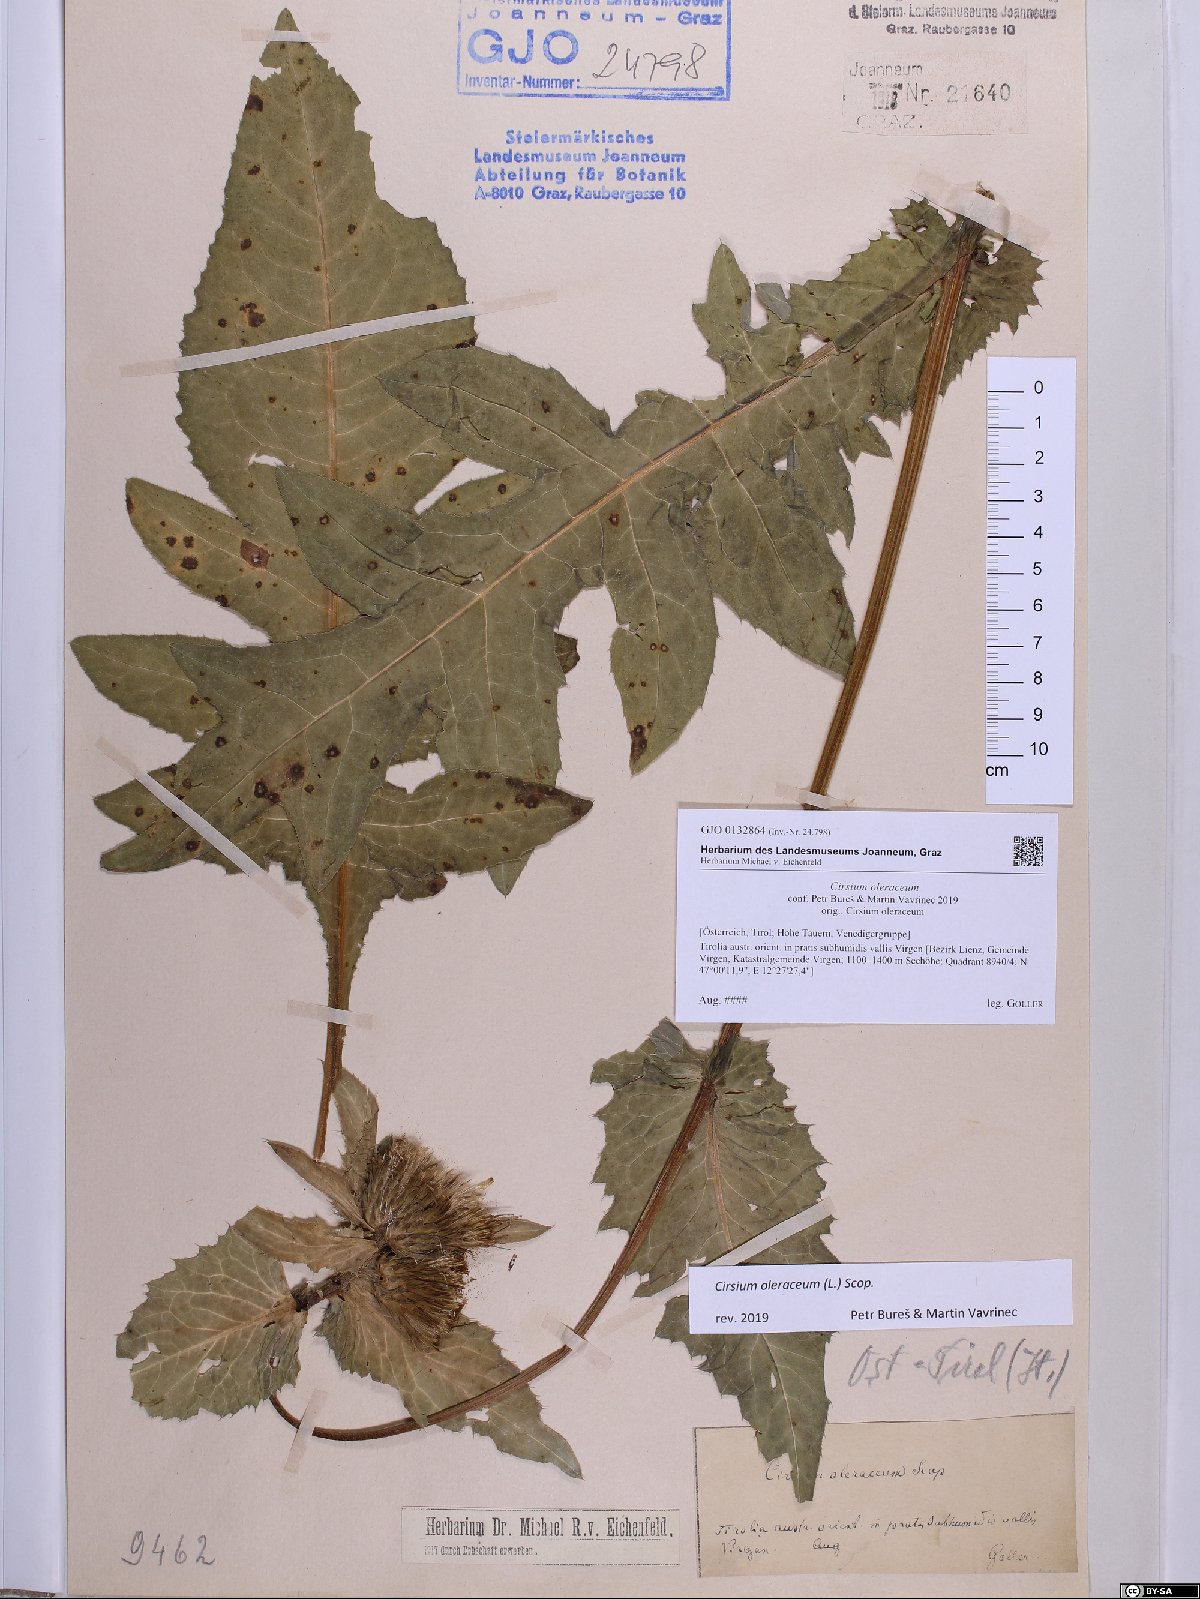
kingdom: Plantae
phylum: Tracheophyta
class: Magnoliopsida
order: Asterales
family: Asteraceae
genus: Cirsium
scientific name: Cirsium oleraceum
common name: Cabbage thistle
